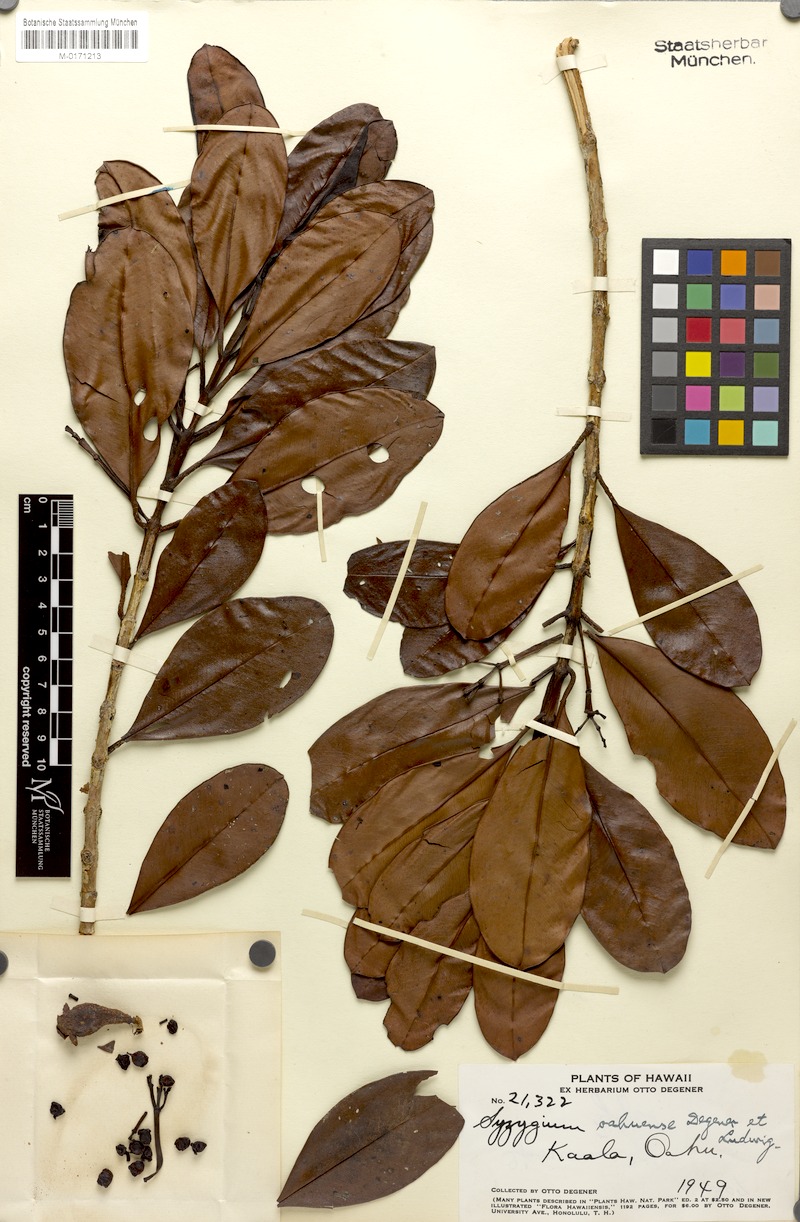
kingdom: Plantae
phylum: Tracheophyta
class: Magnoliopsida
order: Myrtales
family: Myrtaceae
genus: Syzygium
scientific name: Syzygium sandwicense
